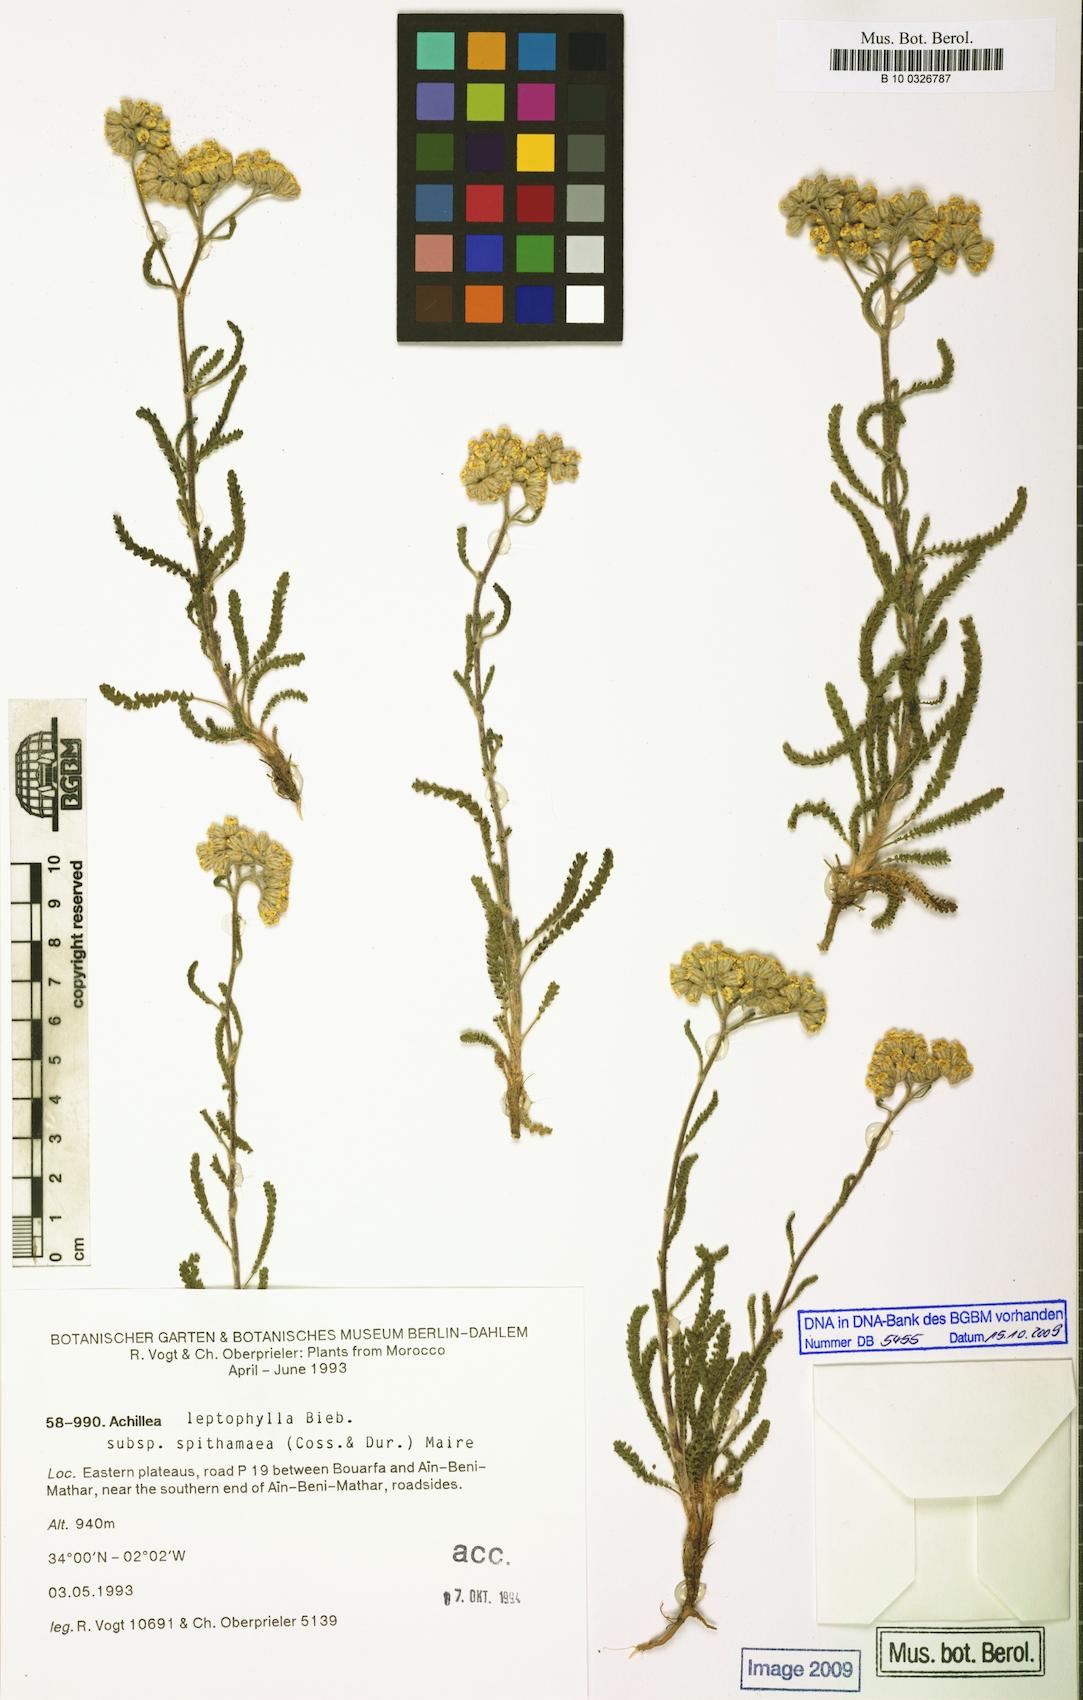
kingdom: Plantae
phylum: Tracheophyta
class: Magnoliopsida
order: Asterales
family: Asteraceae
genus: Achillea
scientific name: Achillea leptophylla
